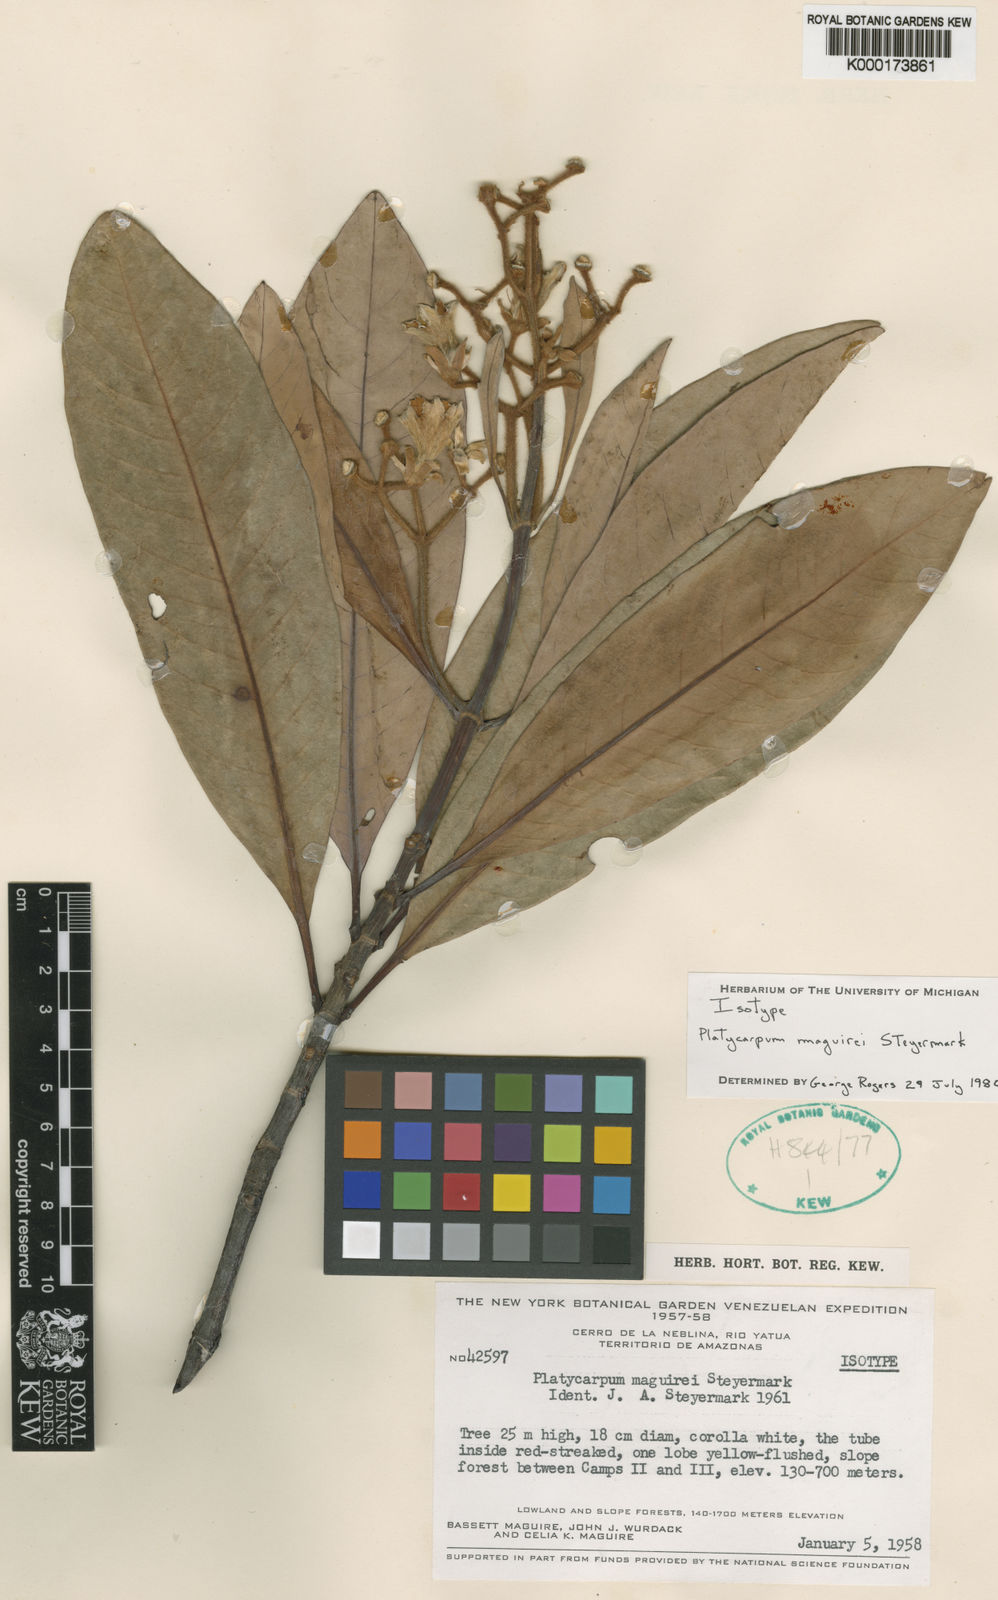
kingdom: Plantae
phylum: Tracheophyta
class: Magnoliopsida
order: Gentianales
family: Rubiaceae
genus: Platycarpum
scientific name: Platycarpum maguirei
